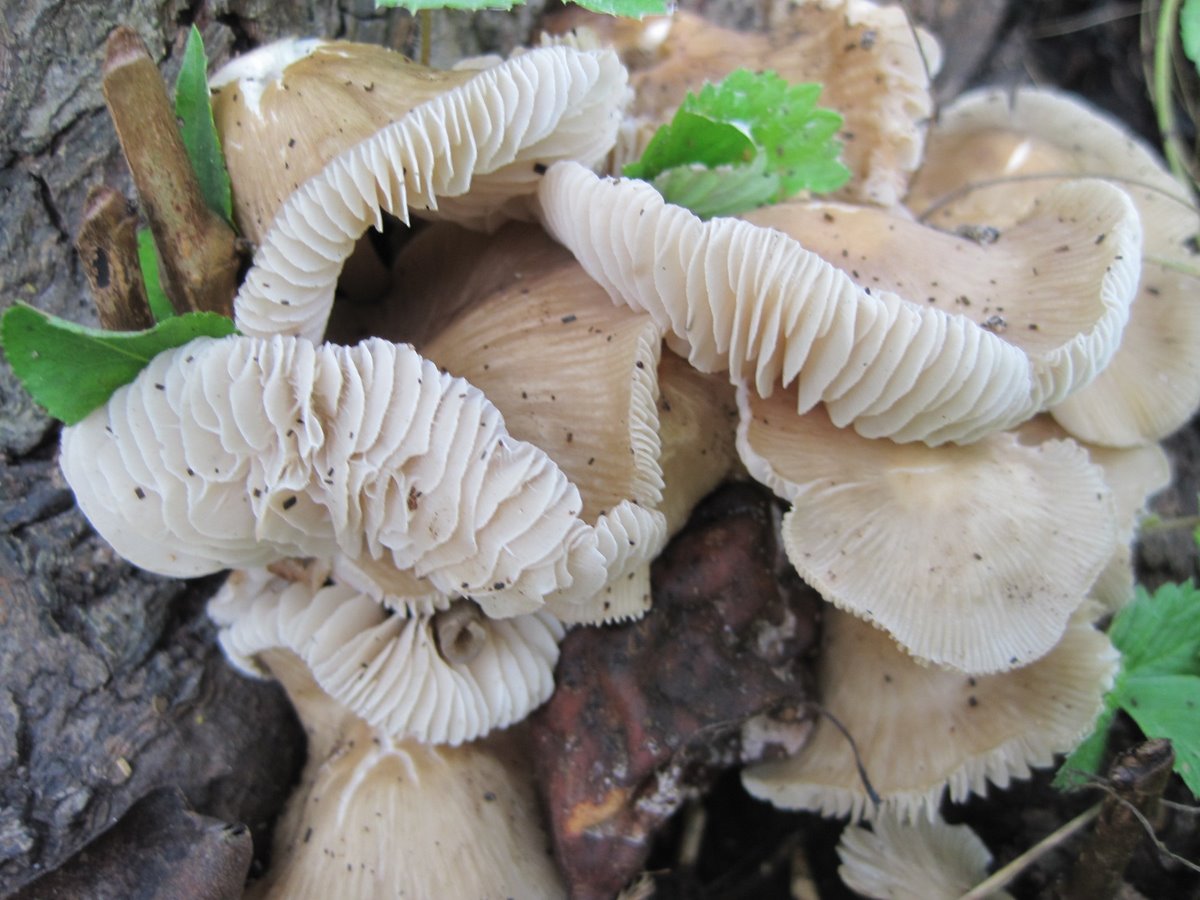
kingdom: Fungi
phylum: Basidiomycota
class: Agaricomycetes
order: Agaricales
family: Mycenaceae
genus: Mycena
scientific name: Mycena galericulata
